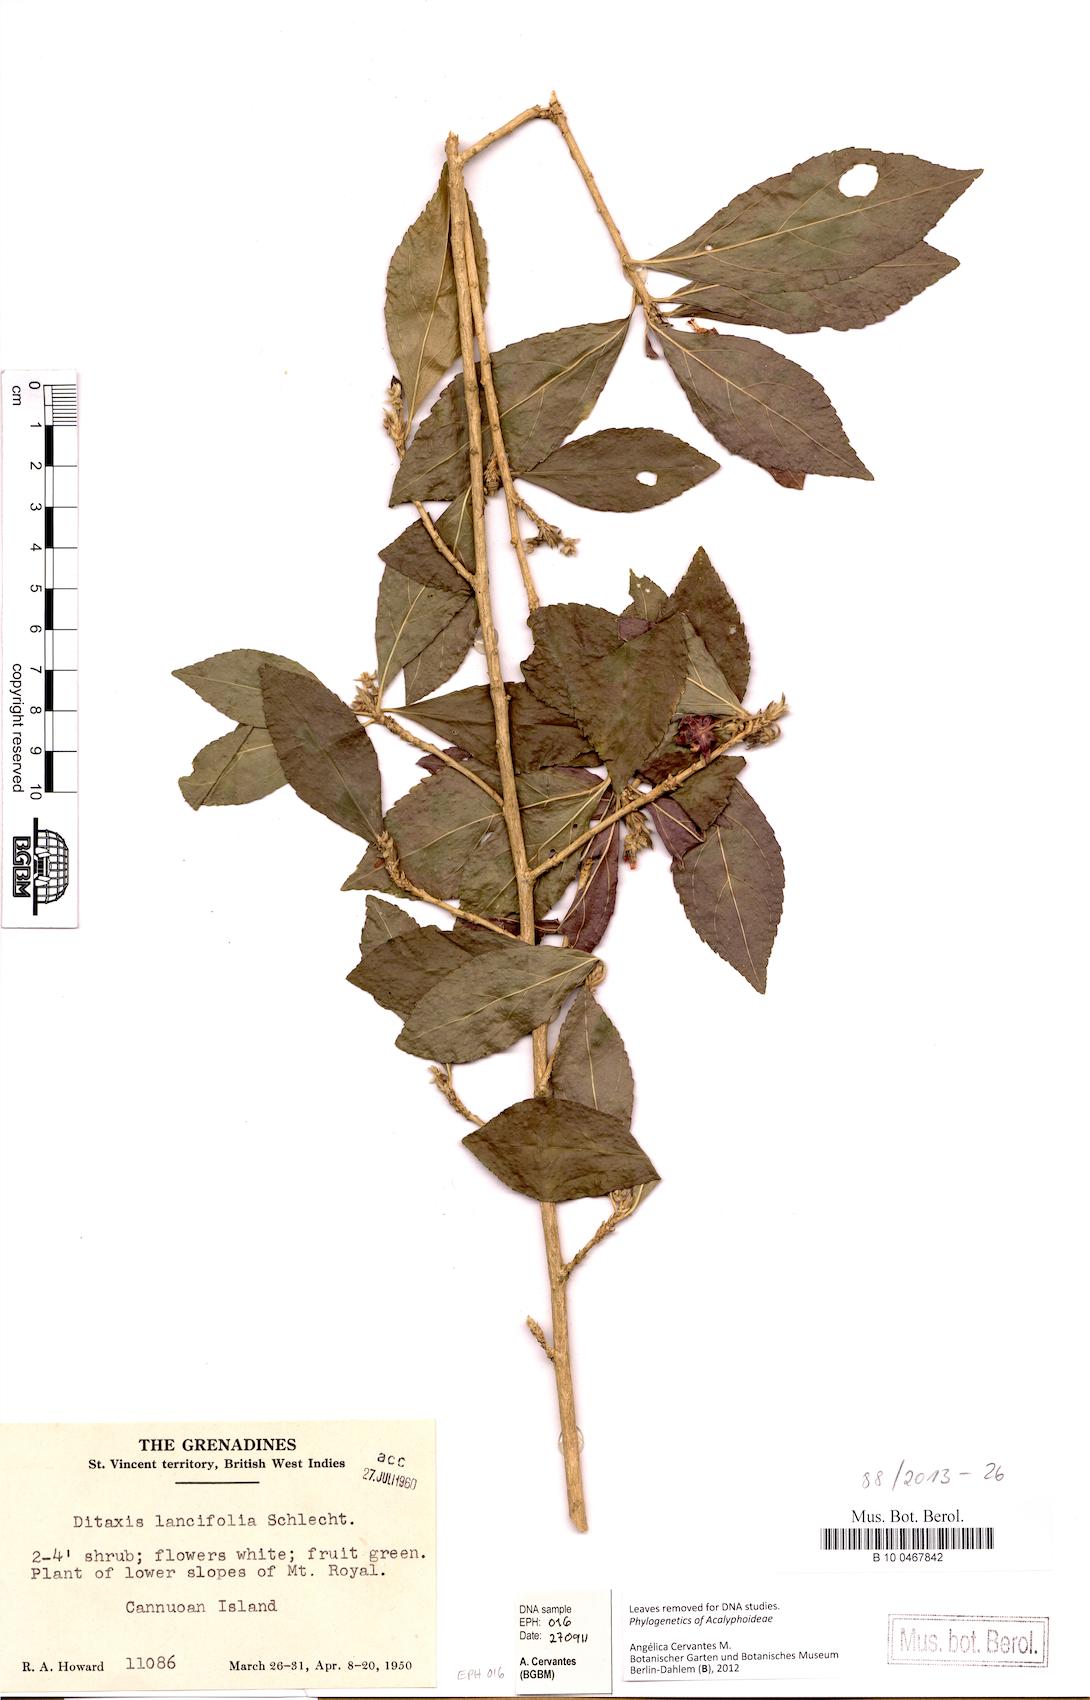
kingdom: Plantae
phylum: Tracheophyta
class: Magnoliopsida
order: Malpighiales
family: Euphorbiaceae
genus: Ditaxis
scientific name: Ditaxis polygama
